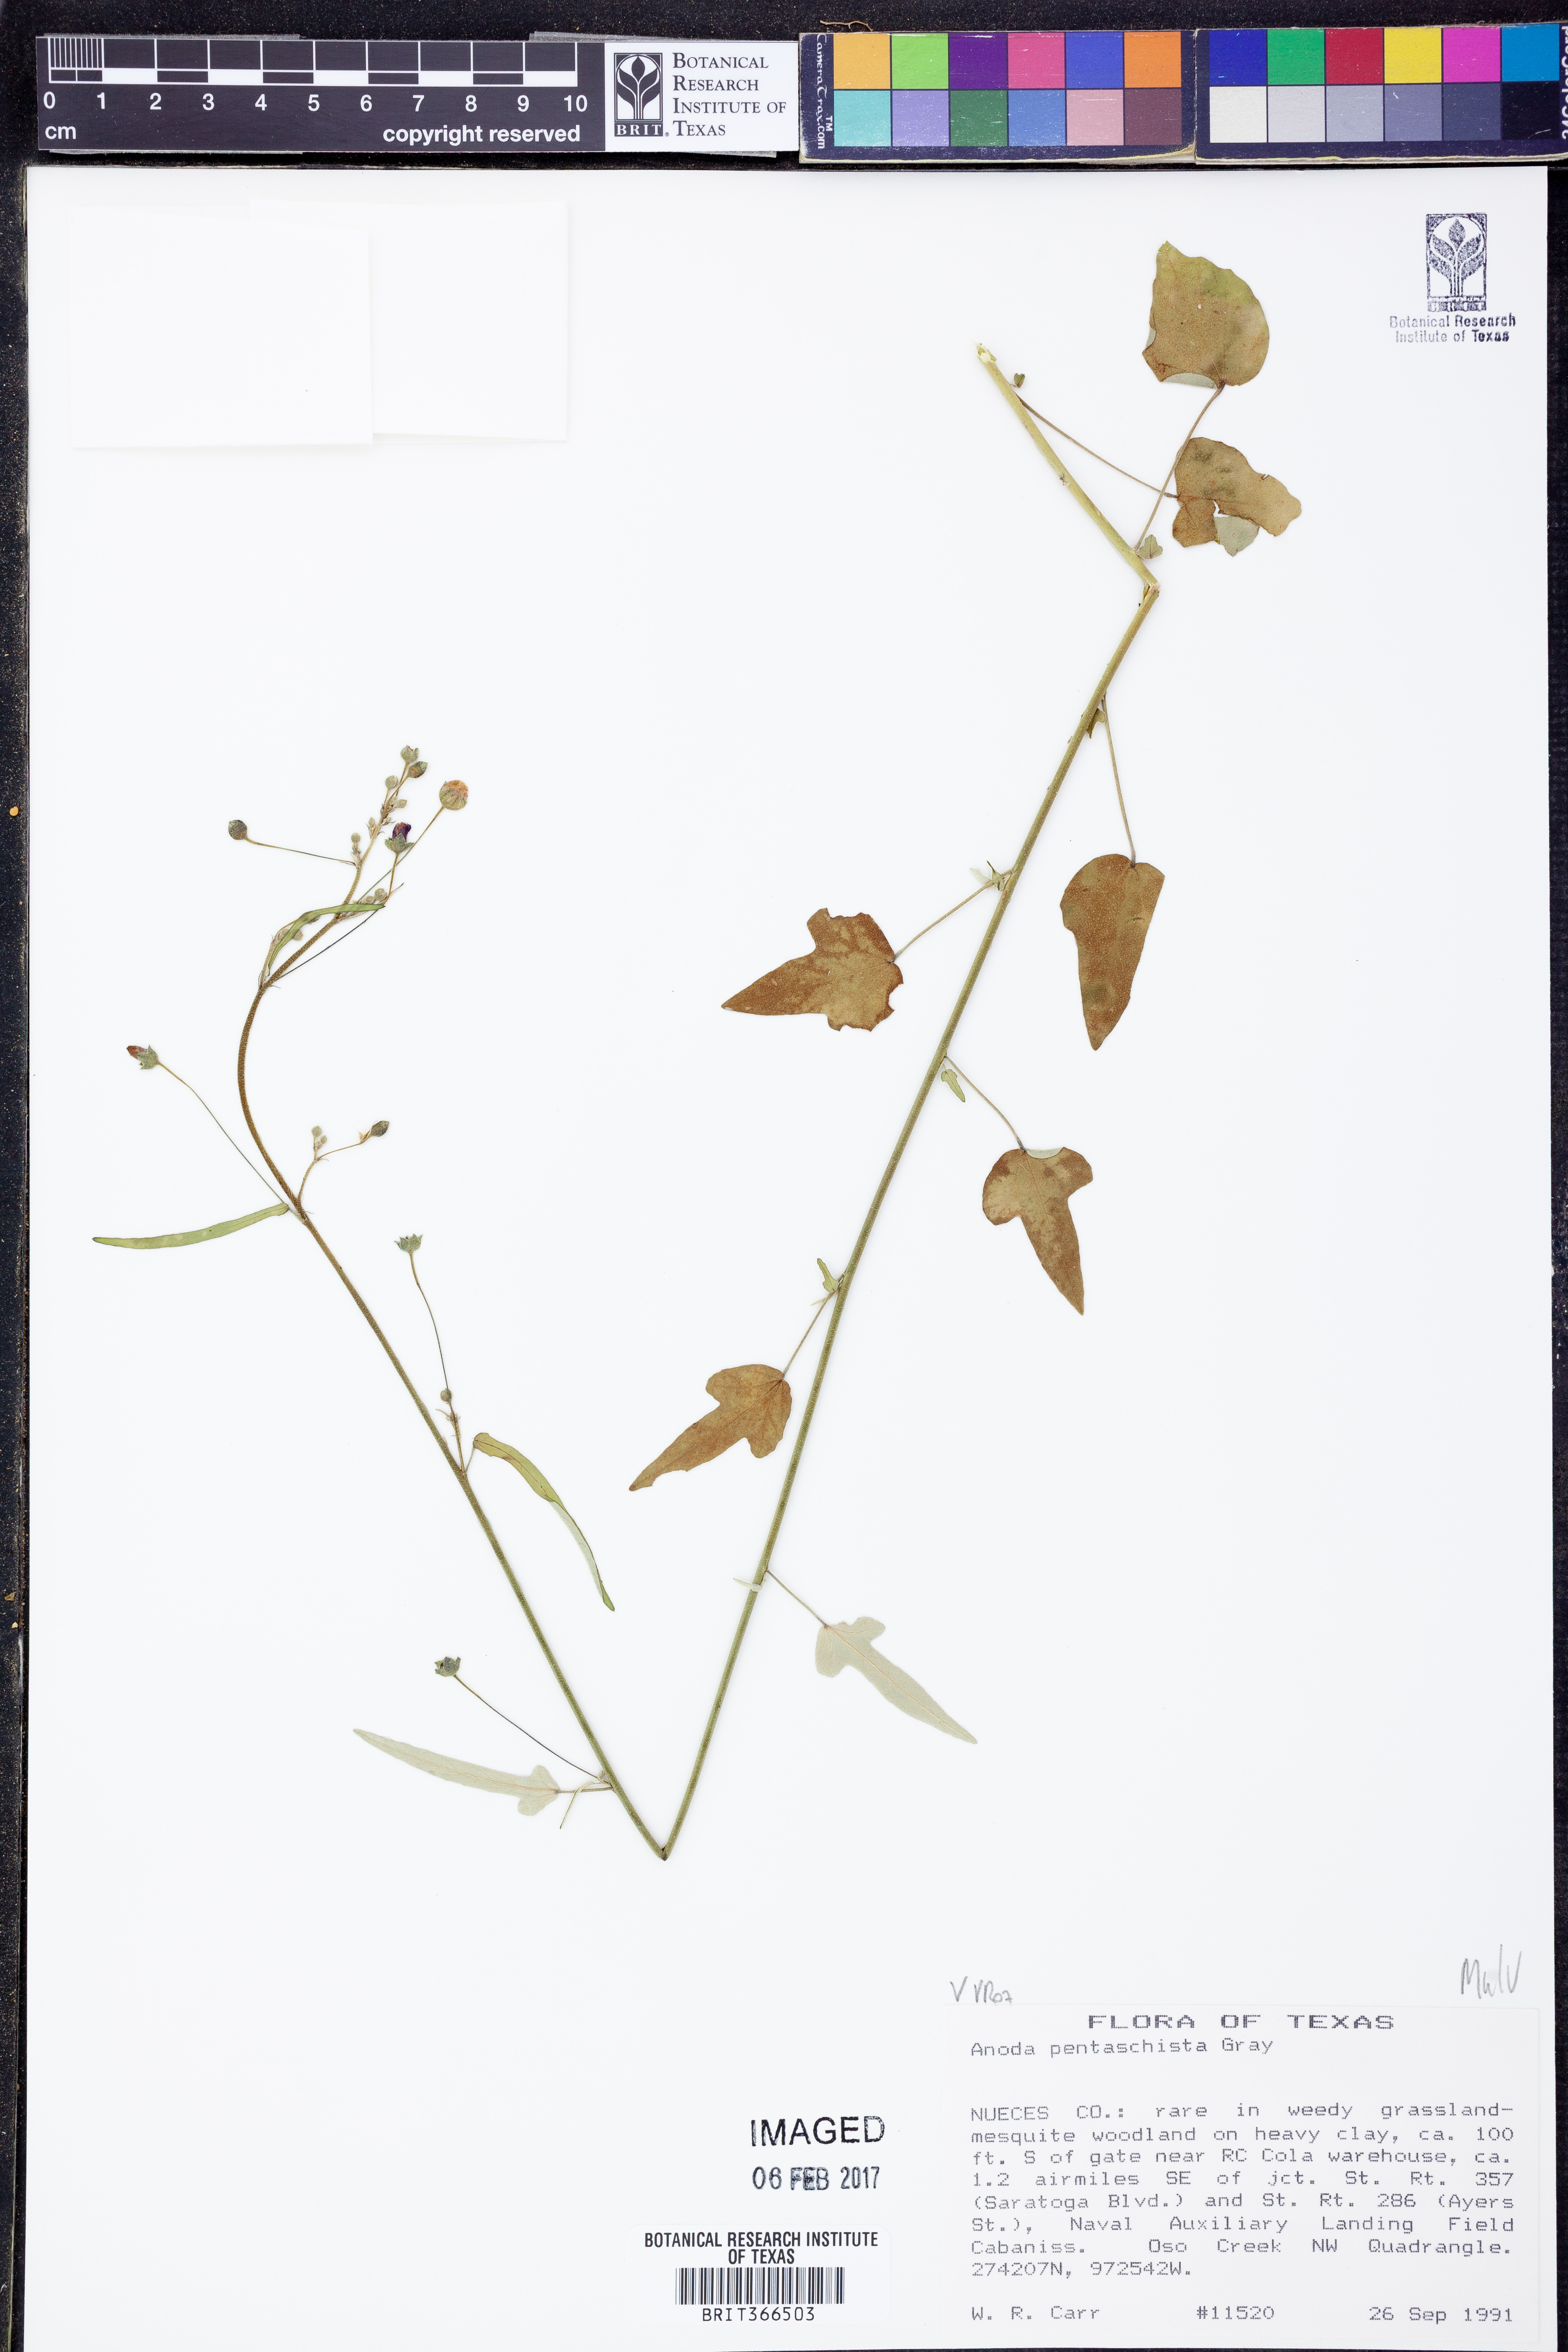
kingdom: Plantae
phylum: Tracheophyta
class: Magnoliopsida
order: Malvales
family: Malvaceae
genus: Anoda
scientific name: Anoda pentaschista
